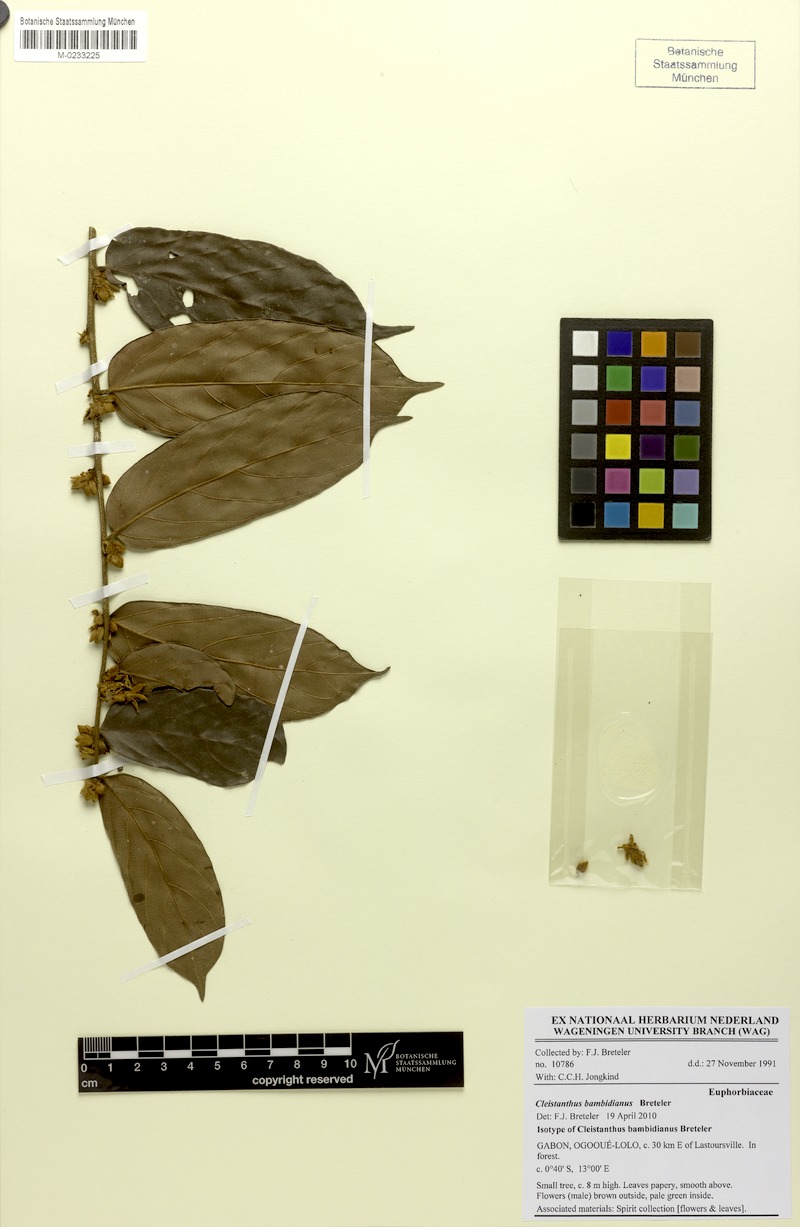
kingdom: Plantae
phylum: Tracheophyta
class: Magnoliopsida
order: Malpighiales
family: Phyllanthaceae
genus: Cleistanthus
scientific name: Cleistanthus bambidianus
